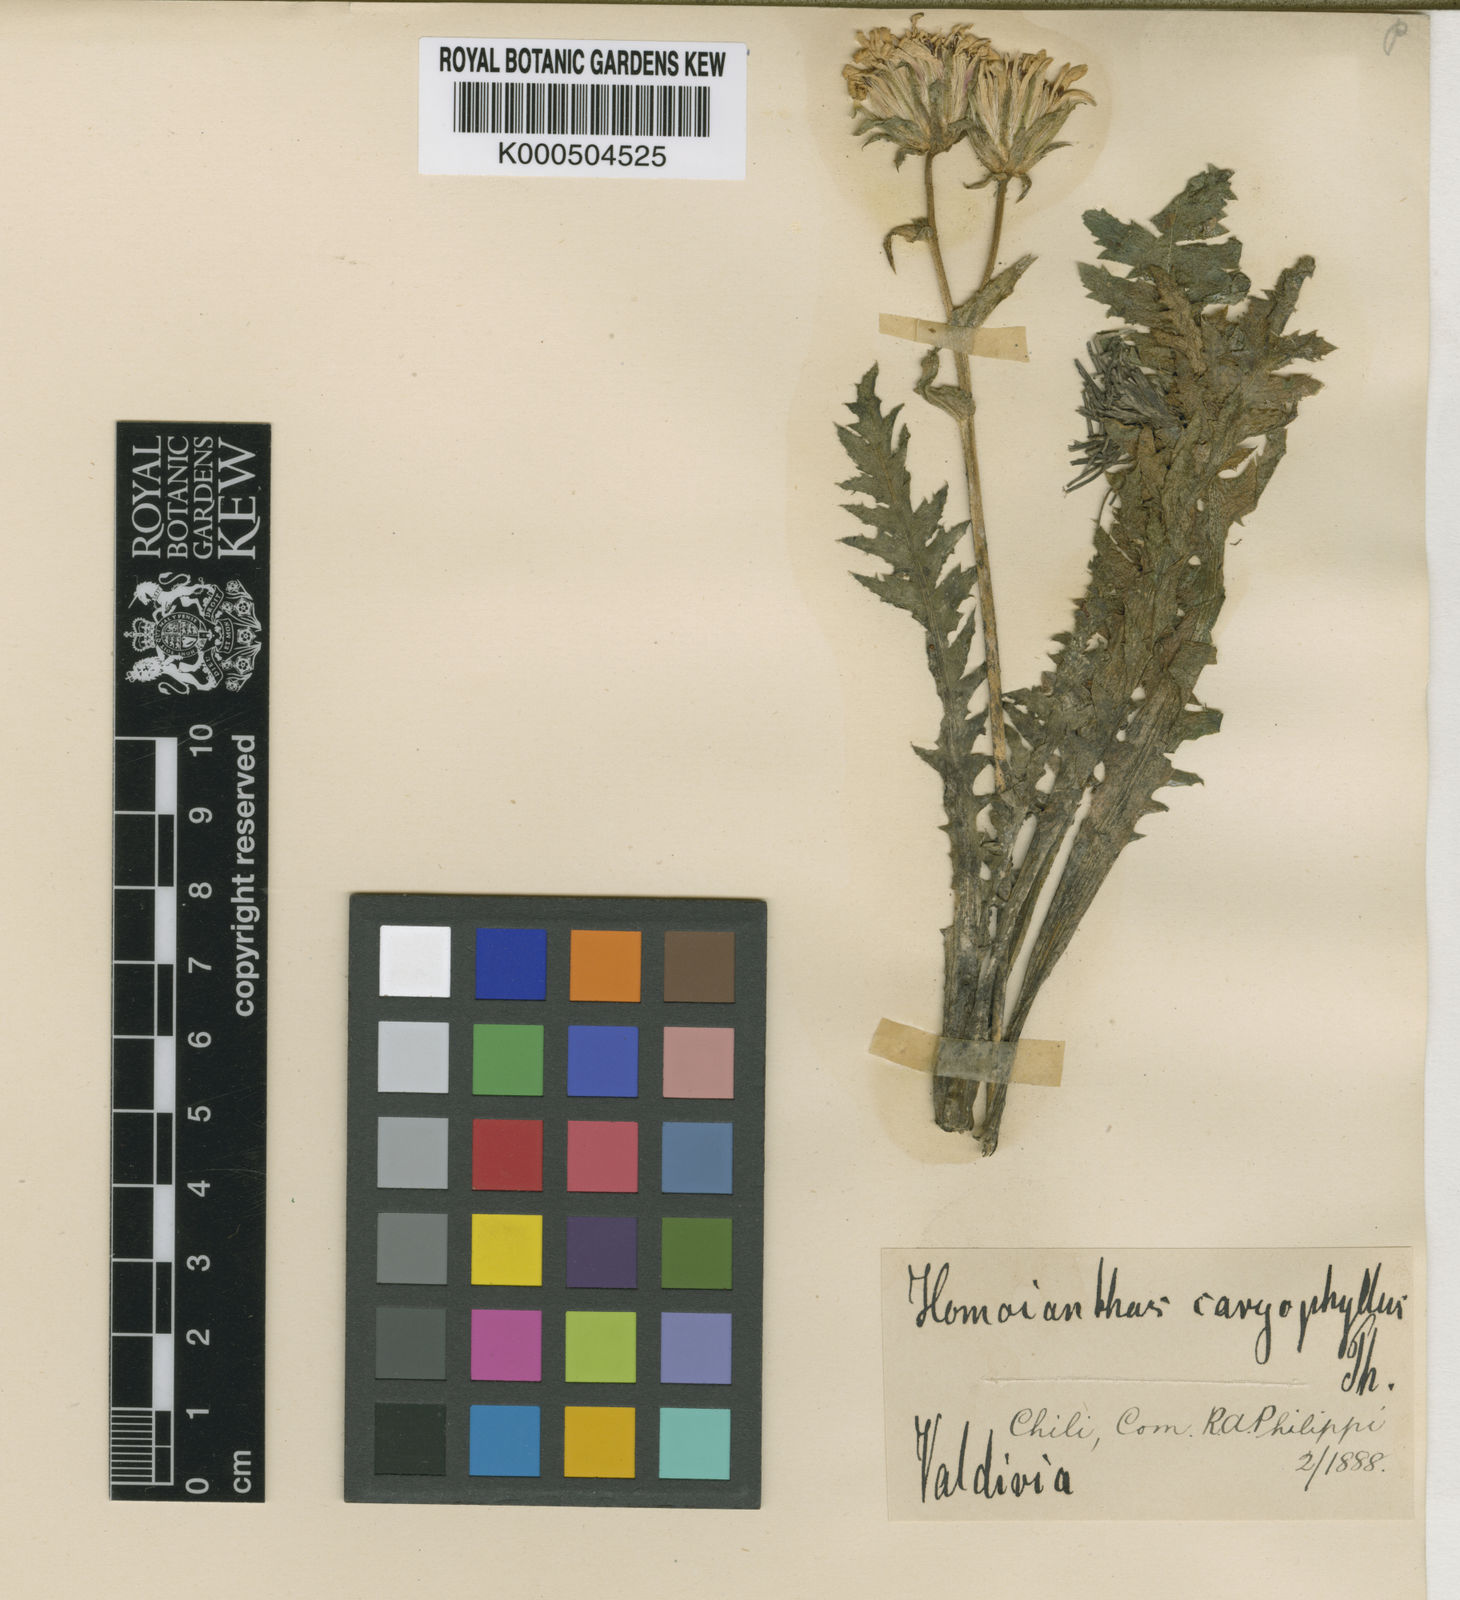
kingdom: Plantae
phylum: Tracheophyta
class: Magnoliopsida
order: Asterales
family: Asteraceae
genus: Perezia
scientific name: Perezia calophylla
